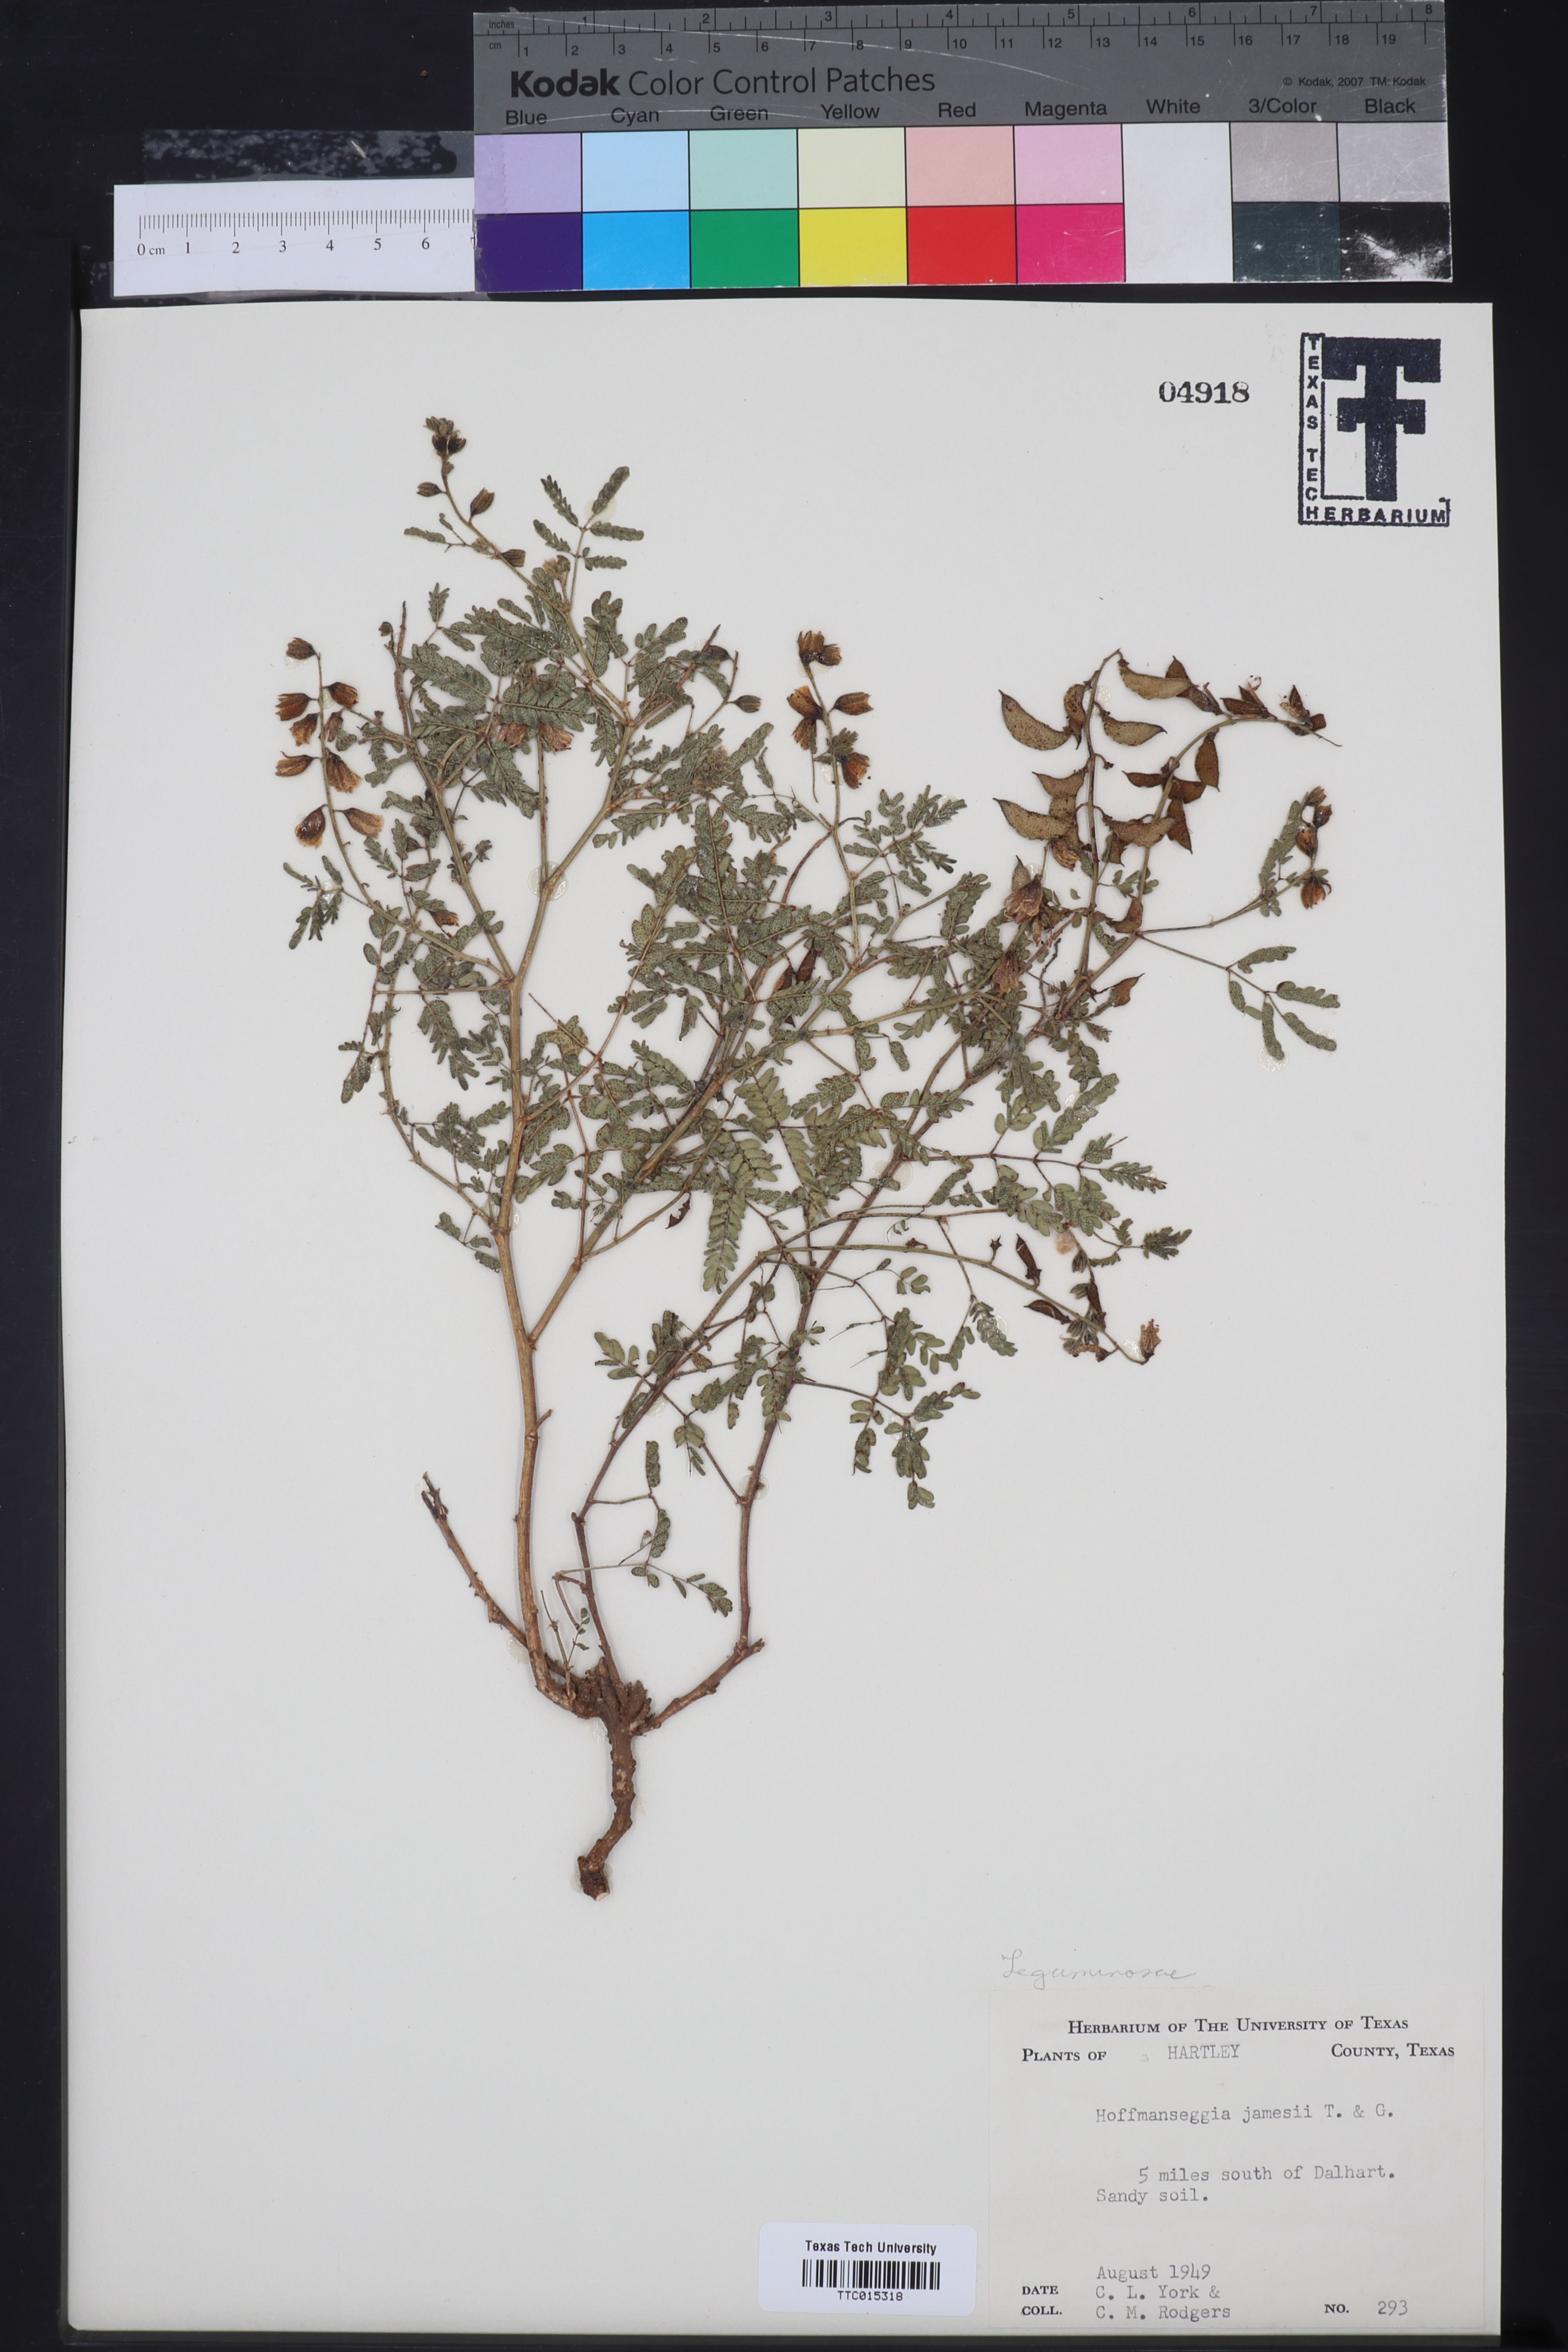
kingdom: Plantae
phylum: Tracheophyta
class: Magnoliopsida
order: Fabales
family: Fabaceae
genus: Pomaria
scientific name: Pomaria jamesii
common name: James' caesalpinia
